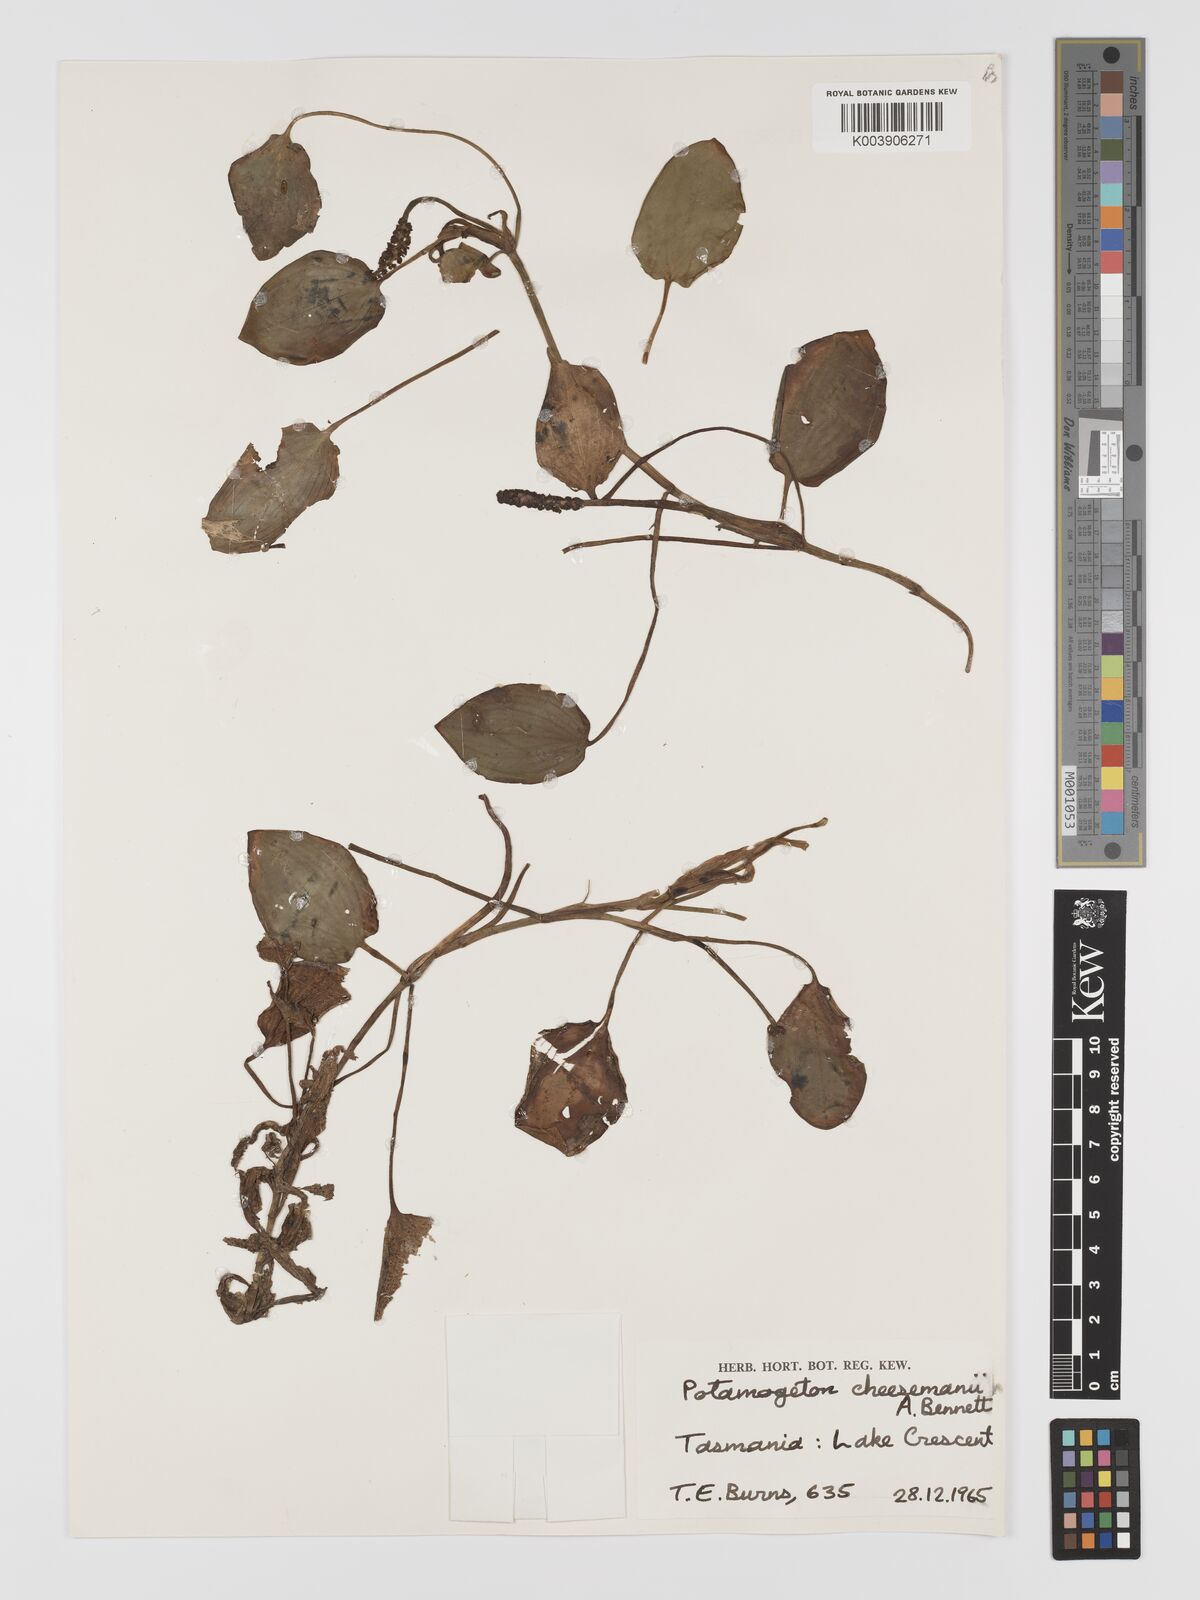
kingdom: Plantae
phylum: Tracheophyta
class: Liliopsida
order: Alismatales
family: Potamogetonaceae
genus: Potamogeton
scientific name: Potamogeton cheesemanii
